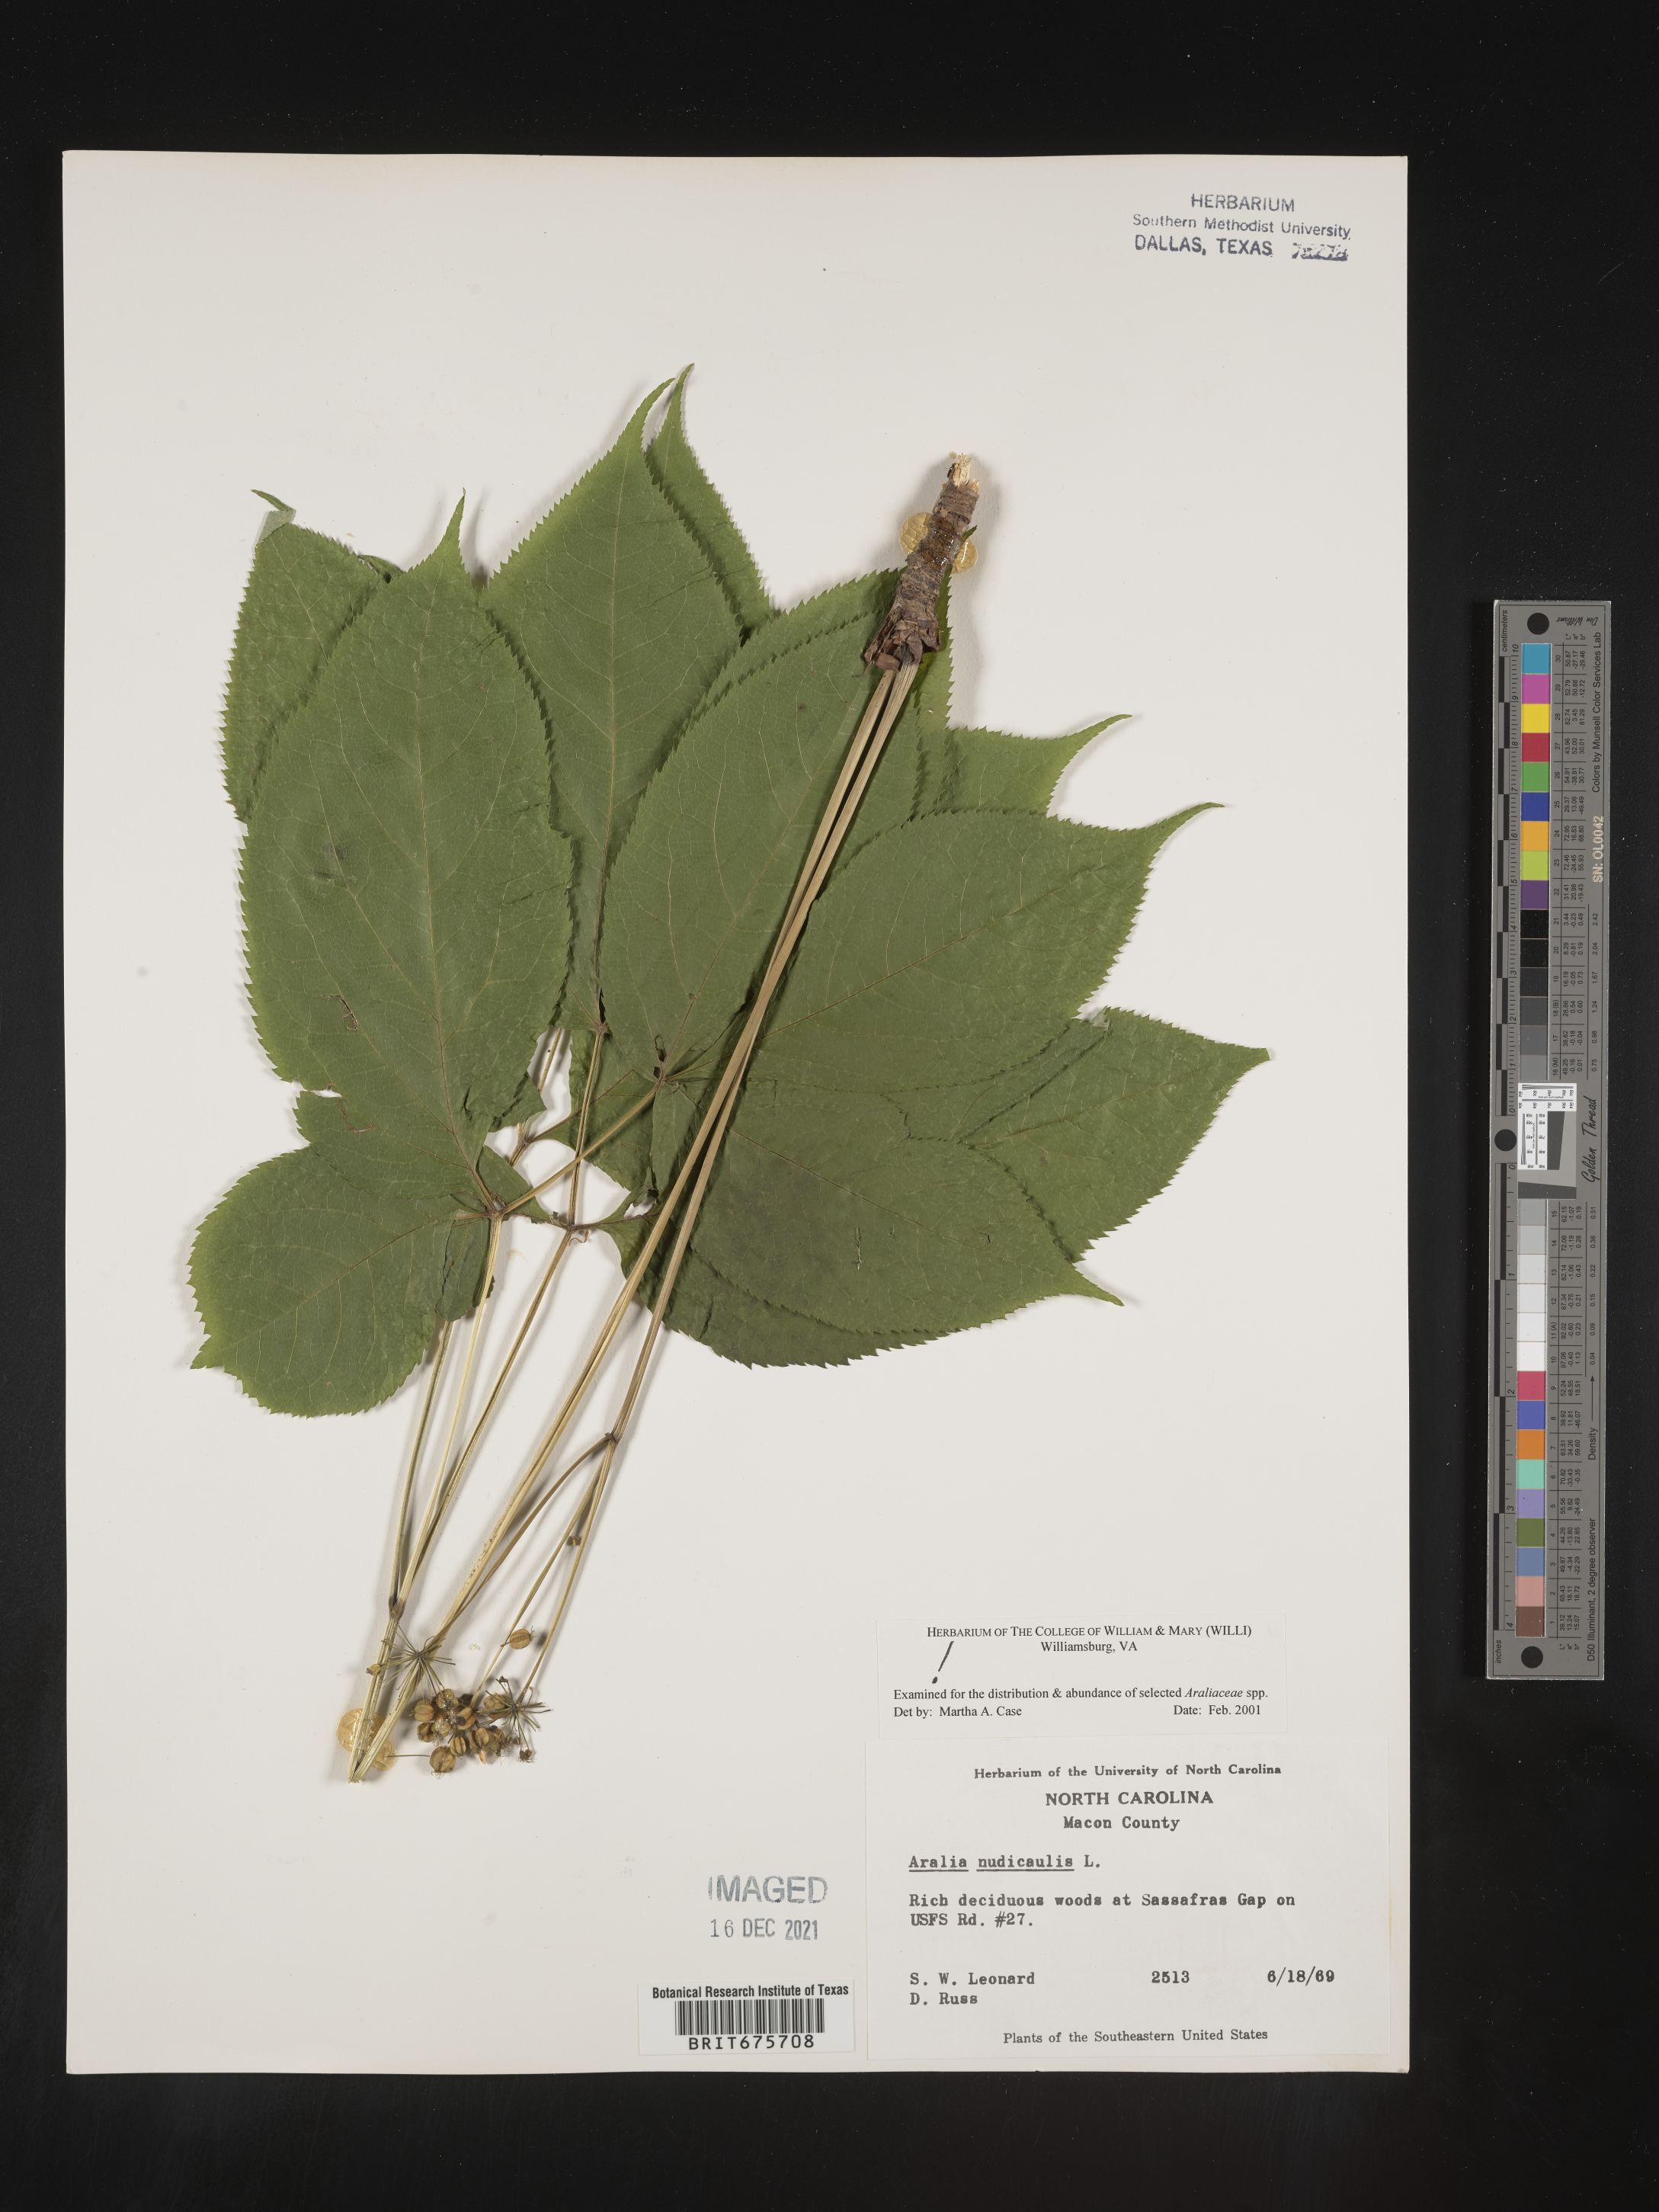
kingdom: Plantae
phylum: Tracheophyta
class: Magnoliopsida
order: Apiales
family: Araliaceae
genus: Aralia
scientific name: Aralia nudicaulis
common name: Wild sarsaparilla
